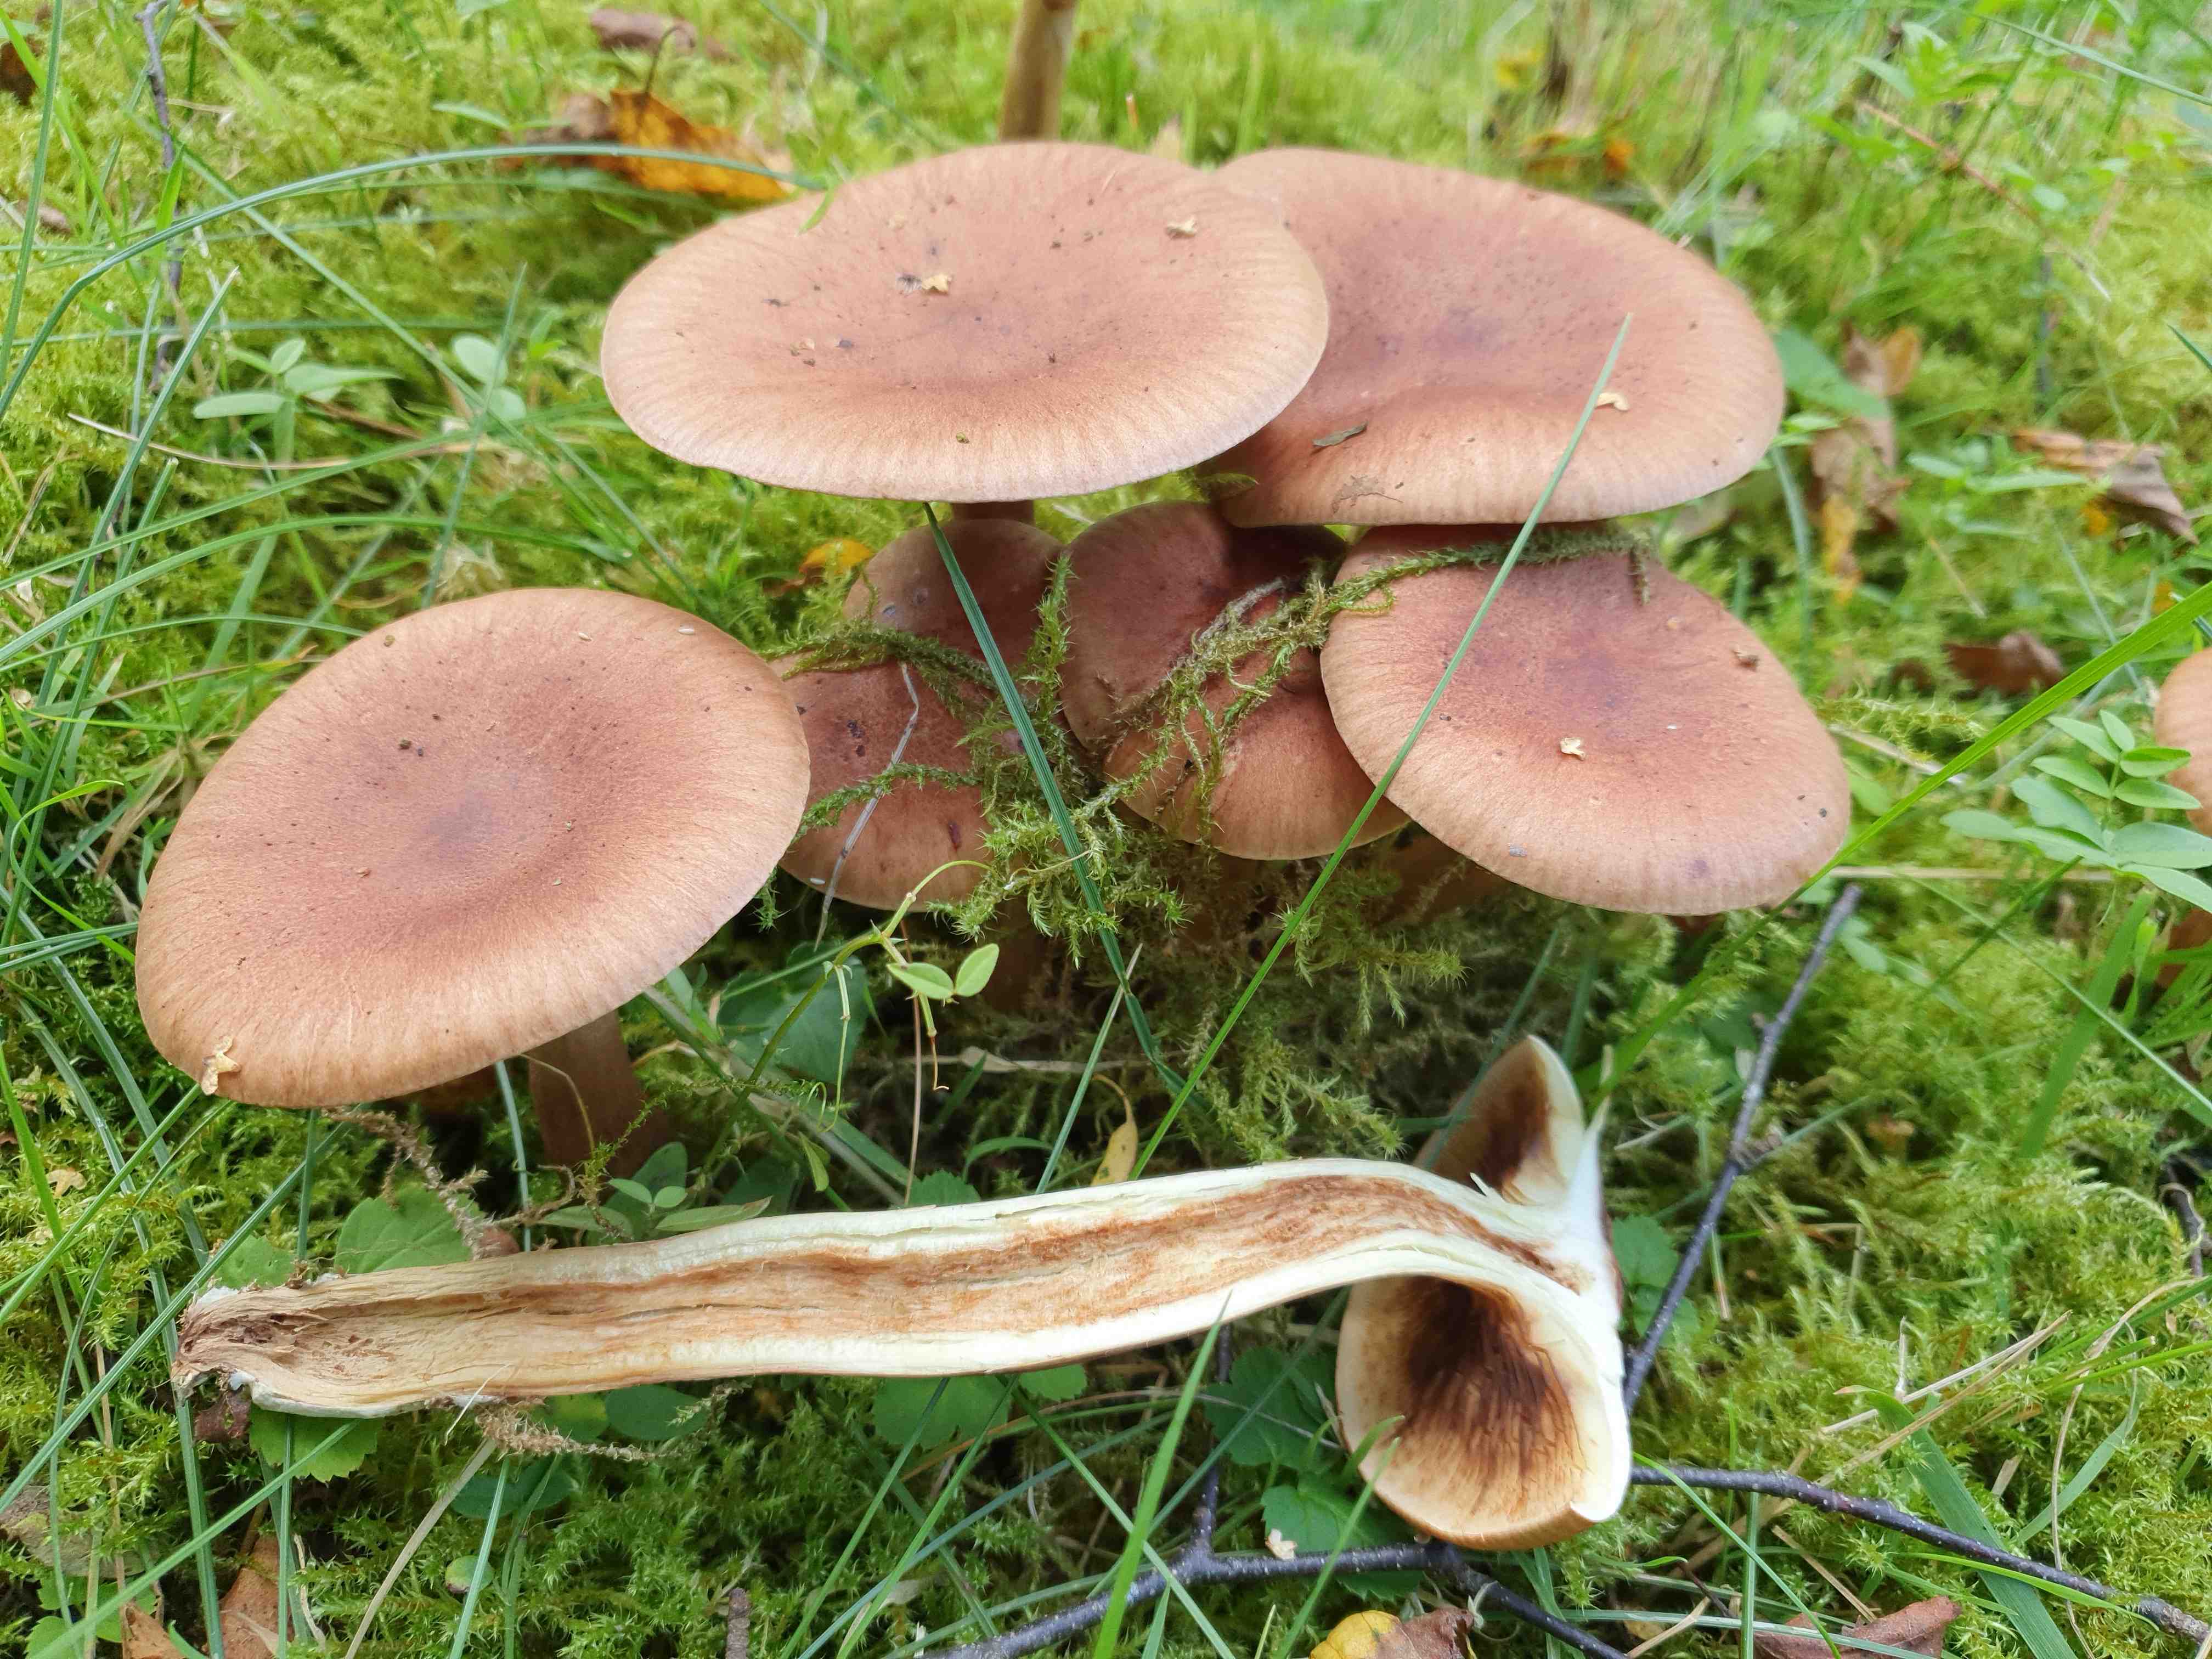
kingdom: Fungi
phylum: Basidiomycota
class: Agaricomycetes
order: Agaricales
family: Tricholomataceae
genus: Tricholoma
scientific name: Tricholoma fulvum
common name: birke-ridderhat
